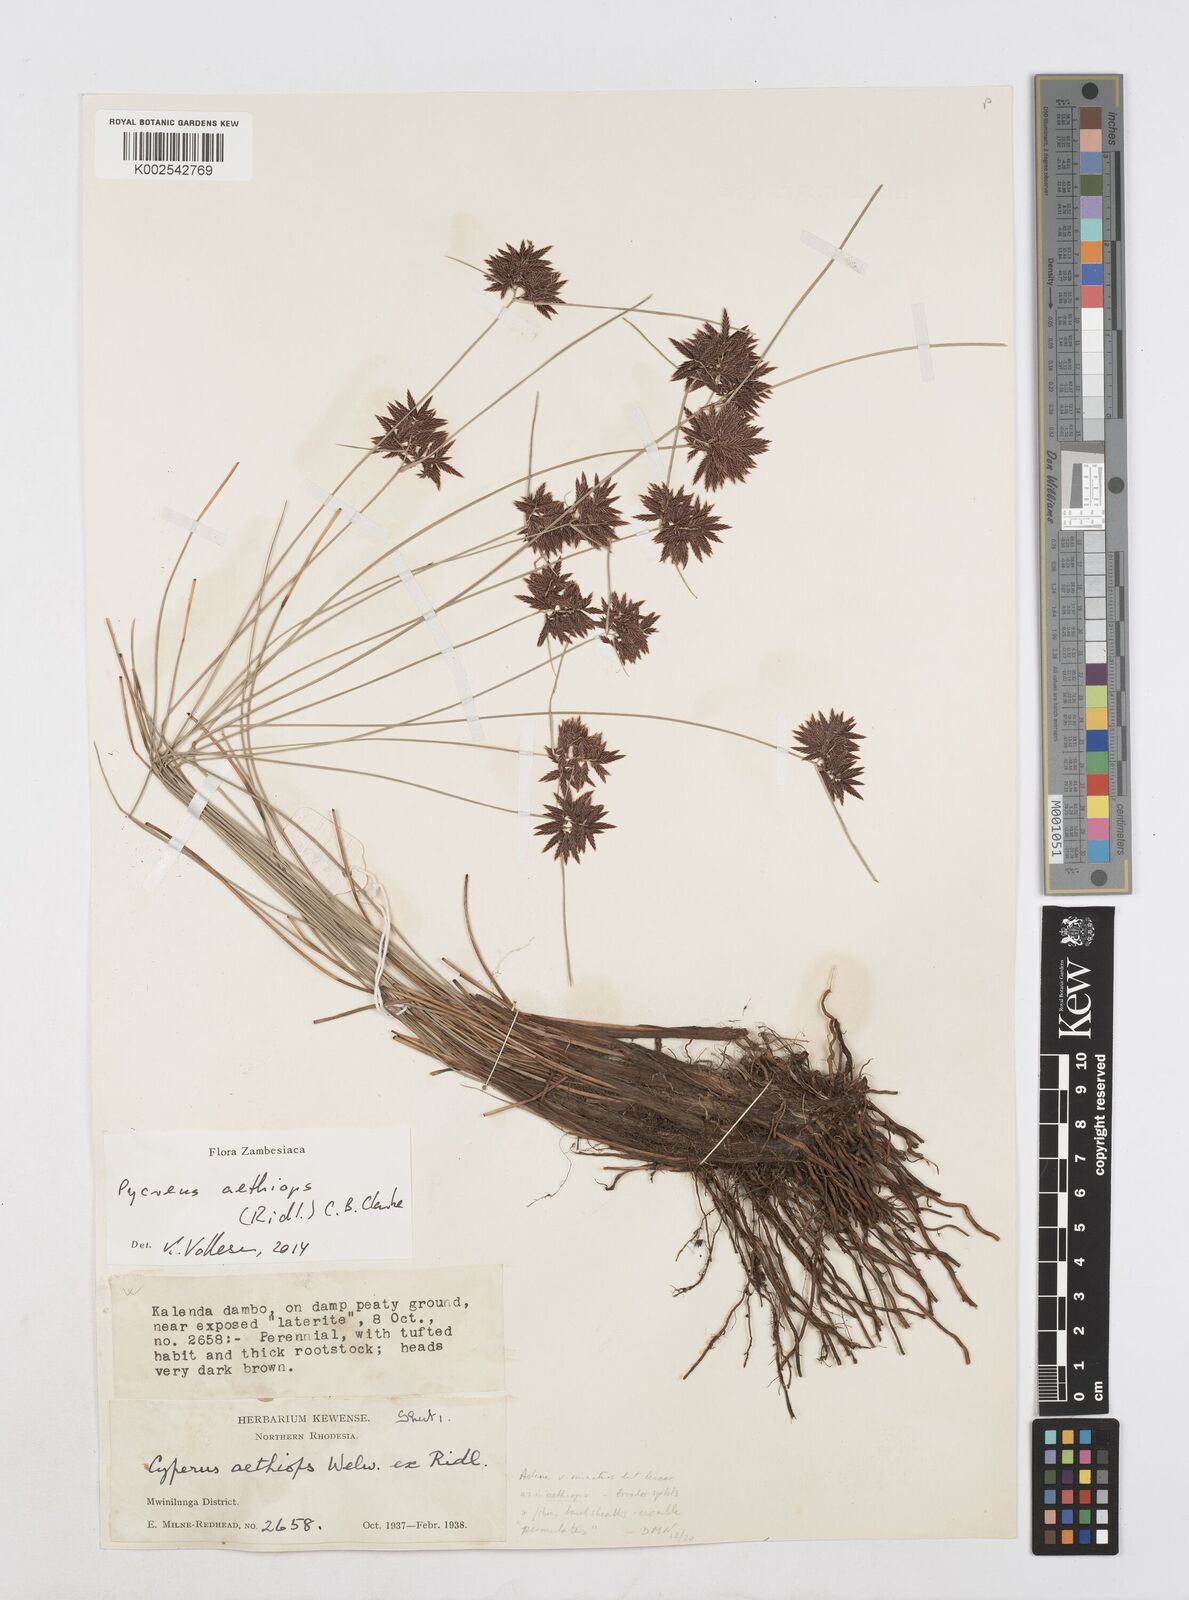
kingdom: Plantae
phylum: Tracheophyta
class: Liliopsida
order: Poales
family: Cyperaceae
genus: Cyperus
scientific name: Cyperus aethiops
